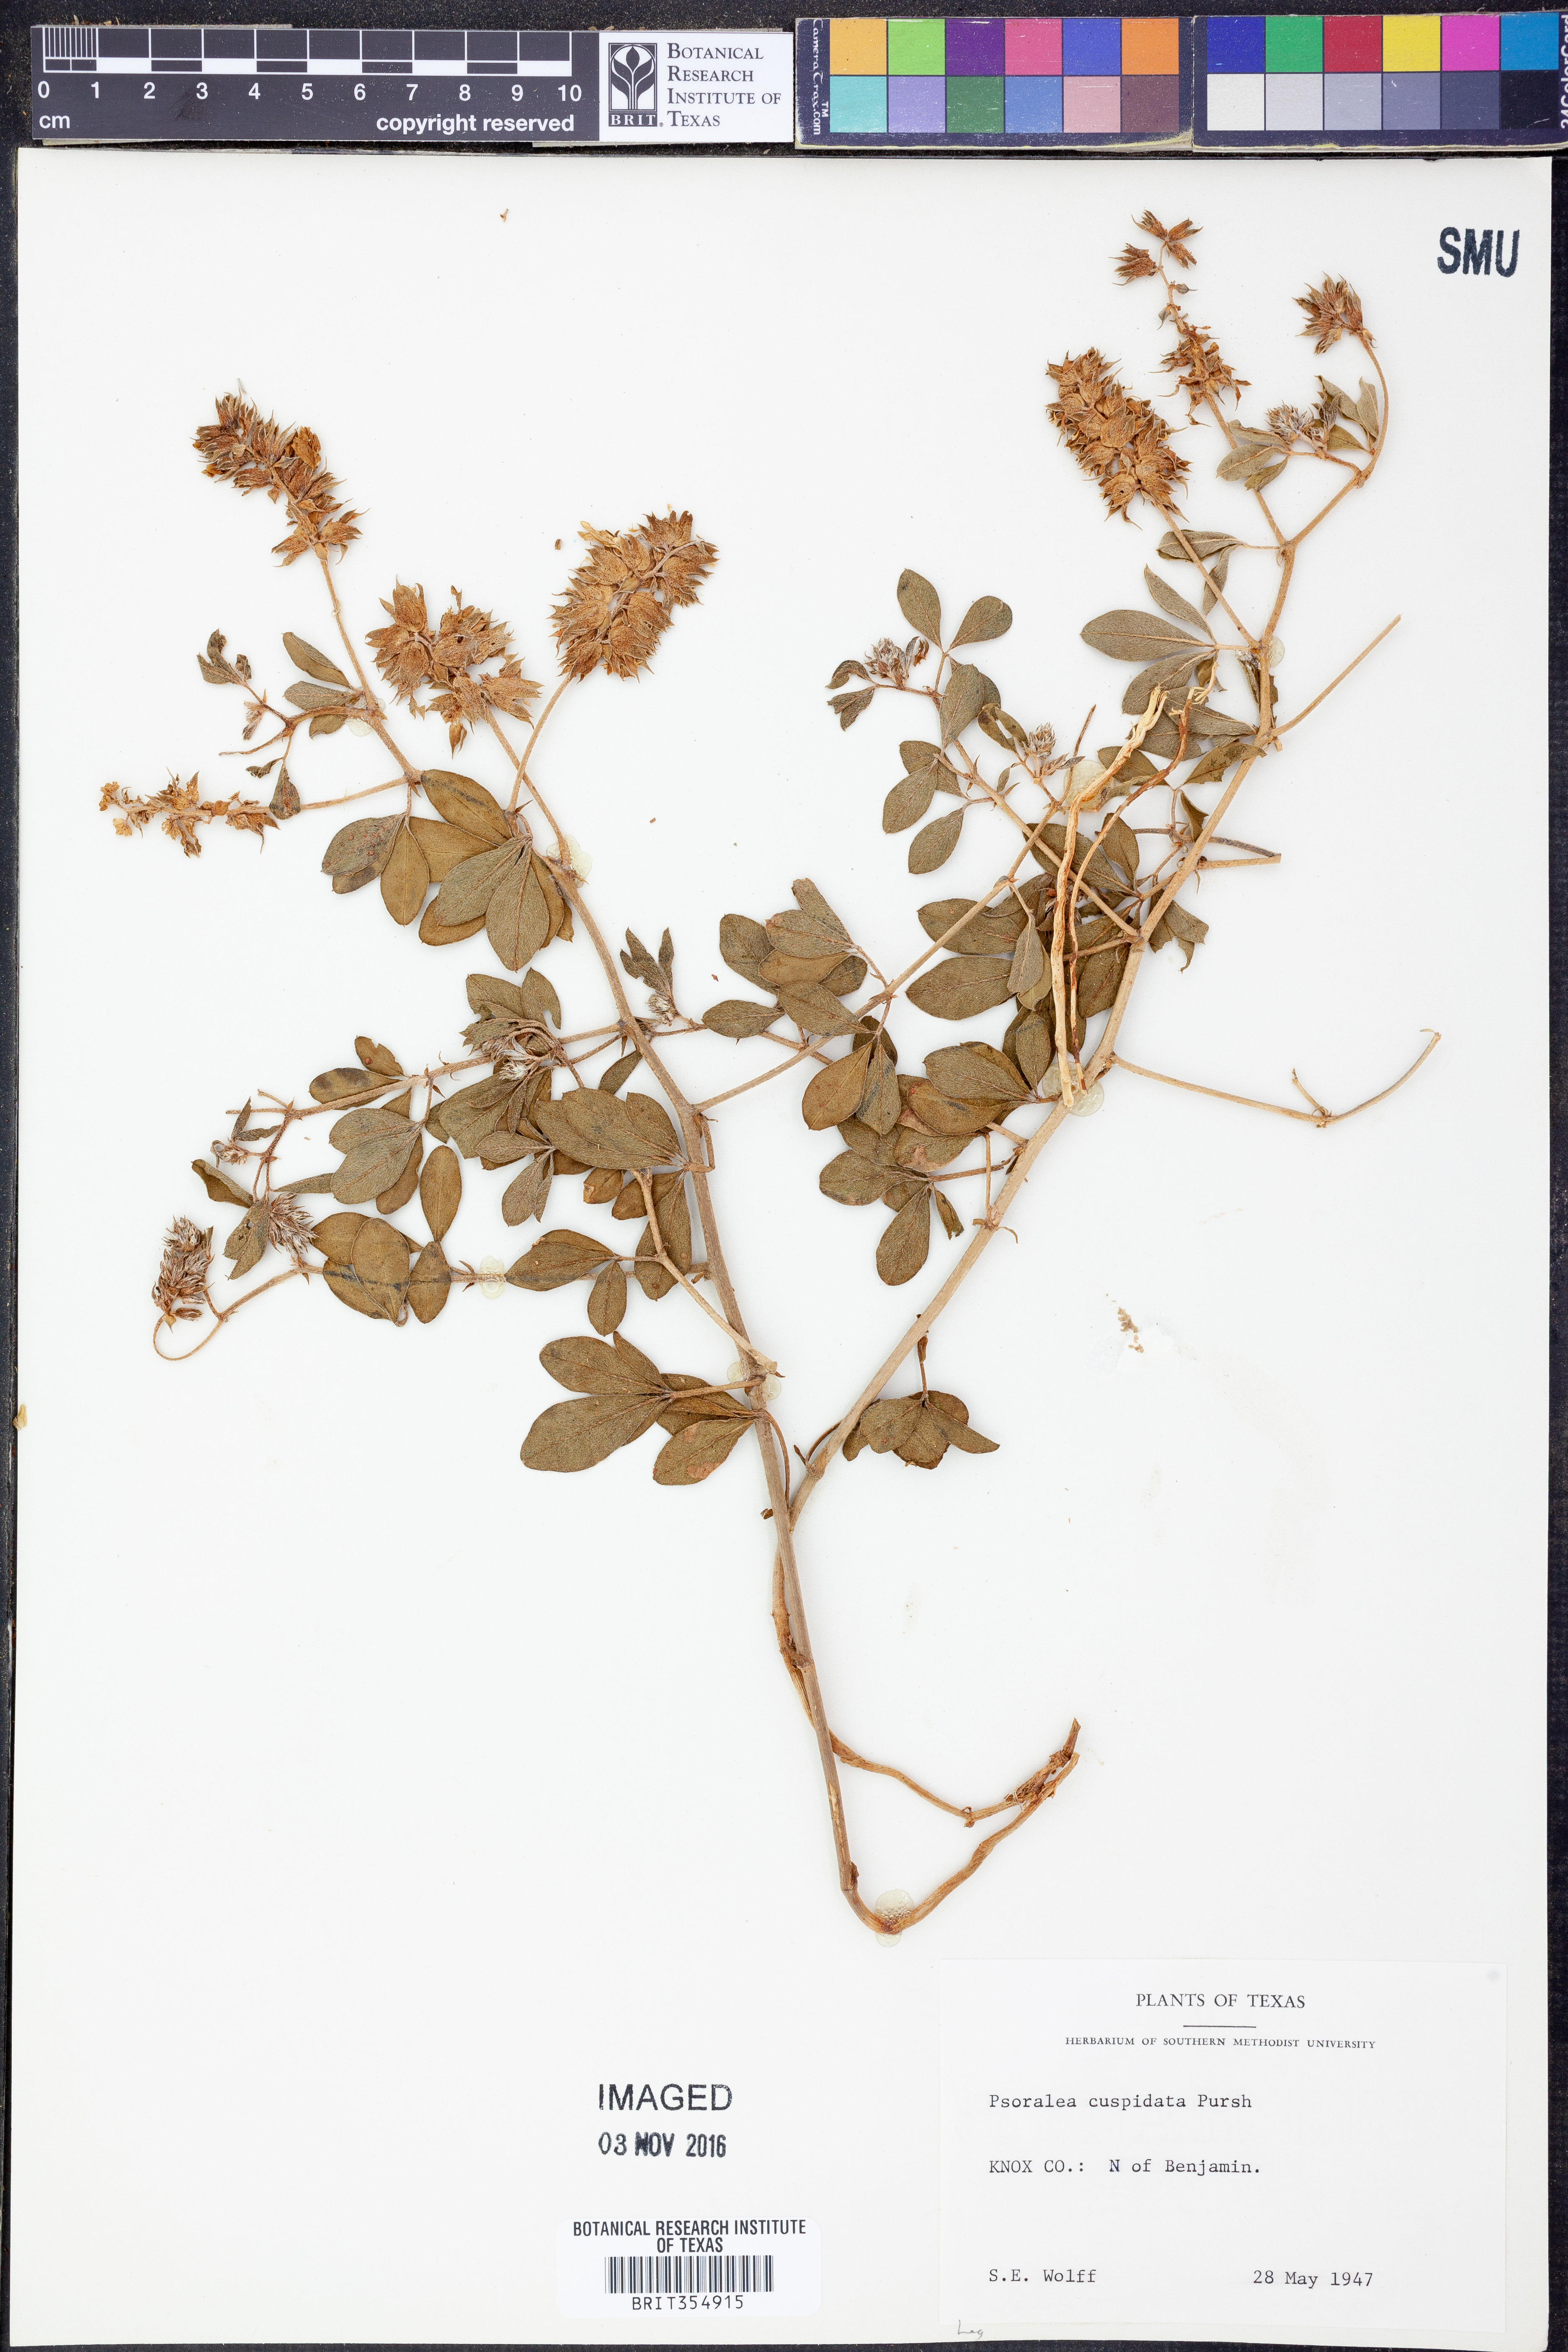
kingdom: Plantae
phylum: Tracheophyta
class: Magnoliopsida
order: Fabales
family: Fabaceae
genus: Pediomelum
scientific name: Pediomelum cuspidatum
